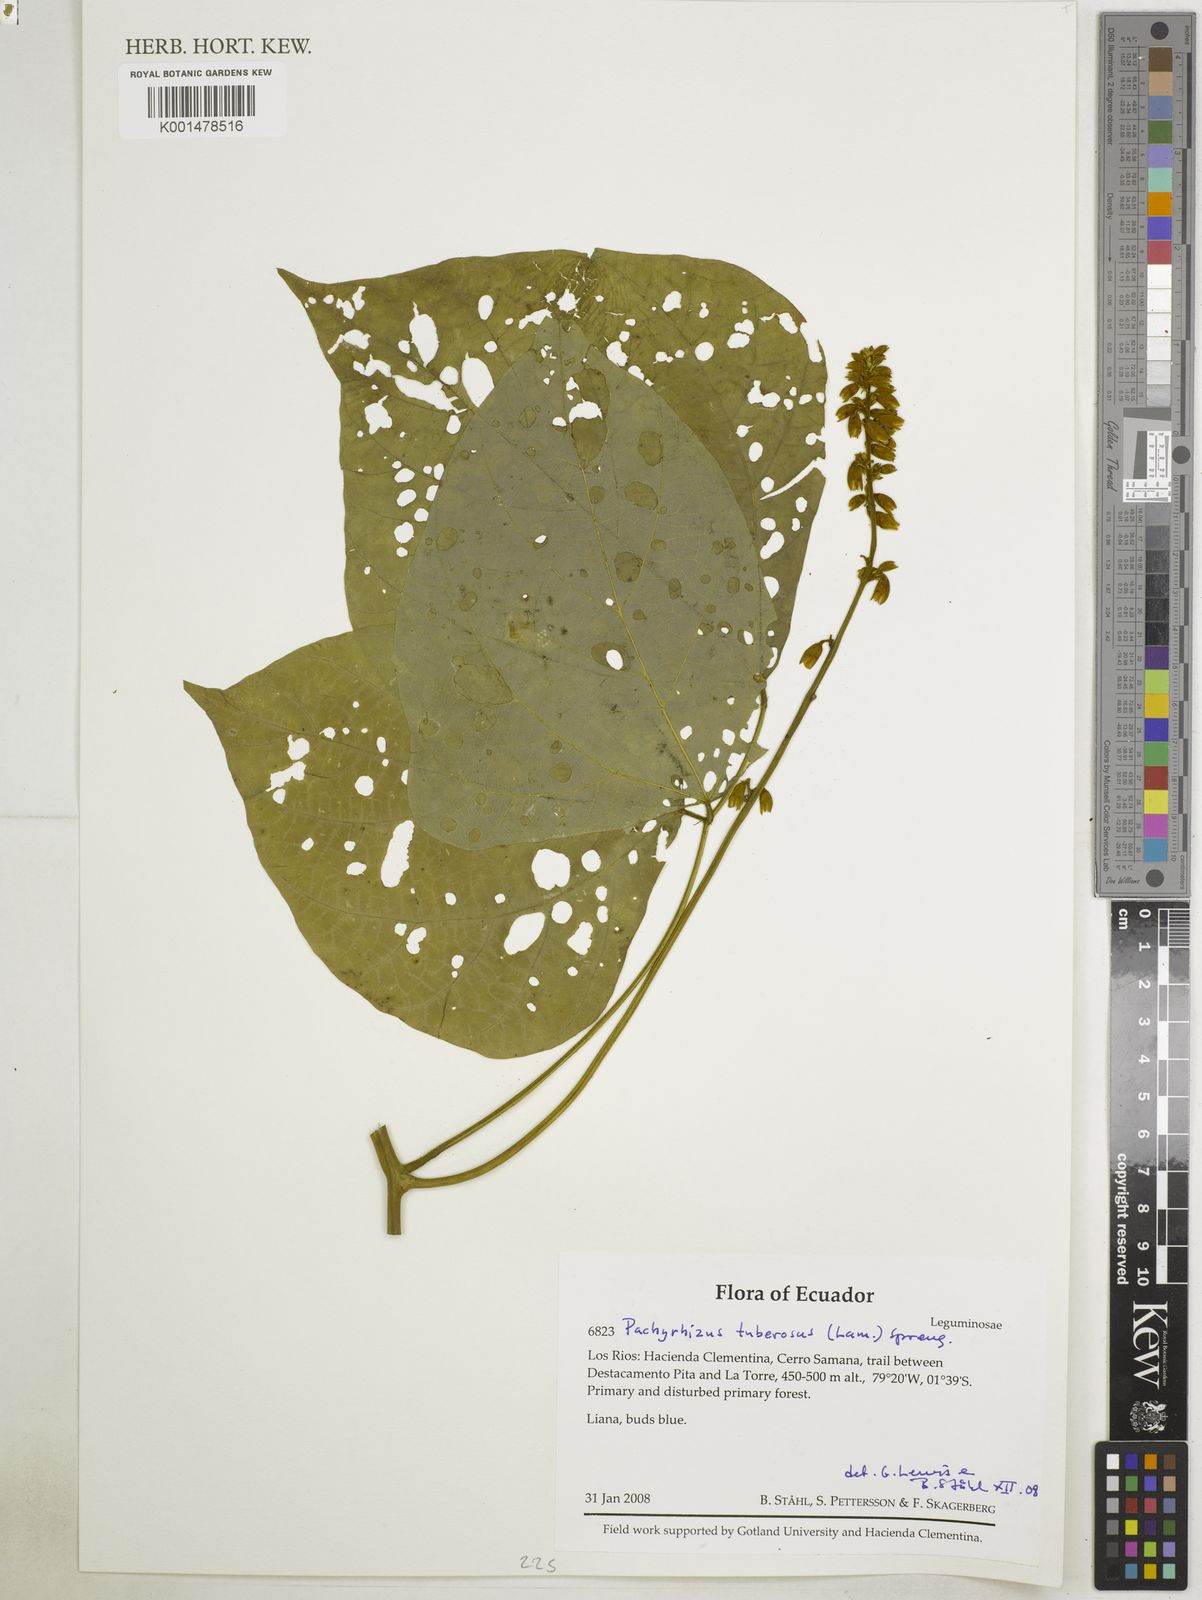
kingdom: Plantae
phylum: Tracheophyta
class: Magnoliopsida
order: Fabales
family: Fabaceae
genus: Pachyrhizus
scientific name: Pachyrhizus tuberosus
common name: Yam-bean
